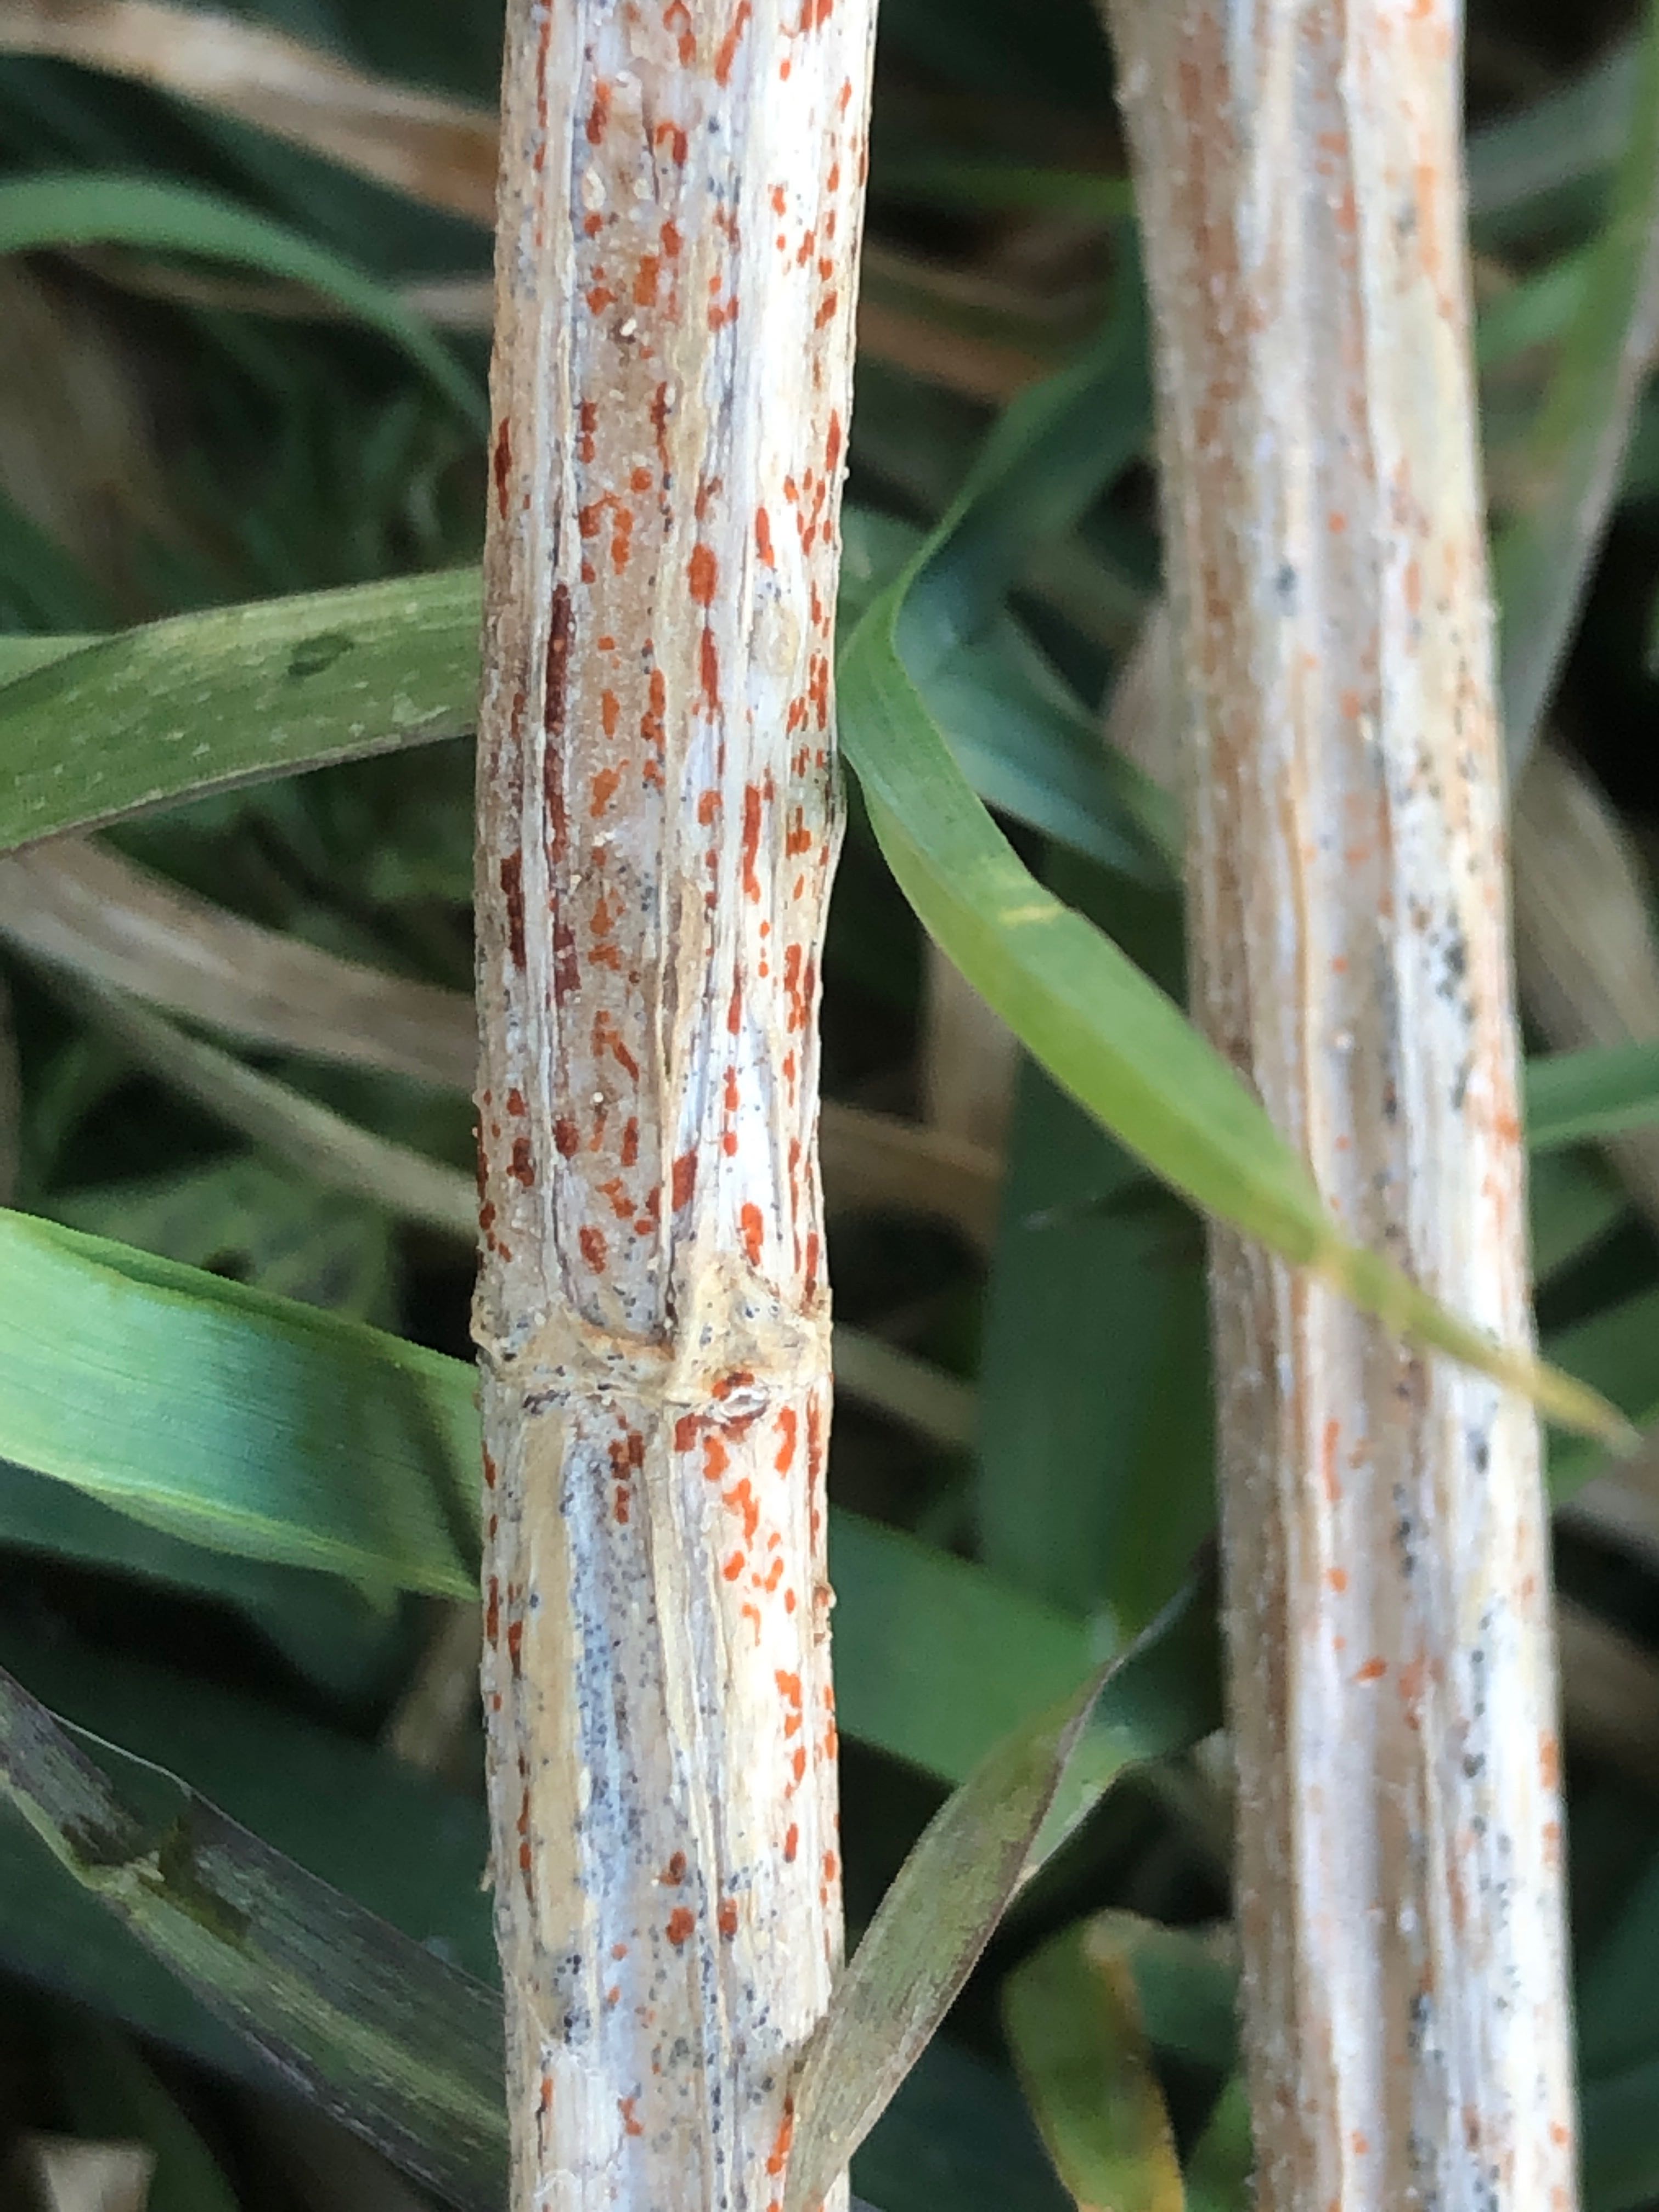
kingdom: Fungi
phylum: Ascomycota
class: Leotiomycetes
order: Helotiales
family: Calloriaceae
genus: Calloria
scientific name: Calloria urticae
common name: nælde-orangeskive
